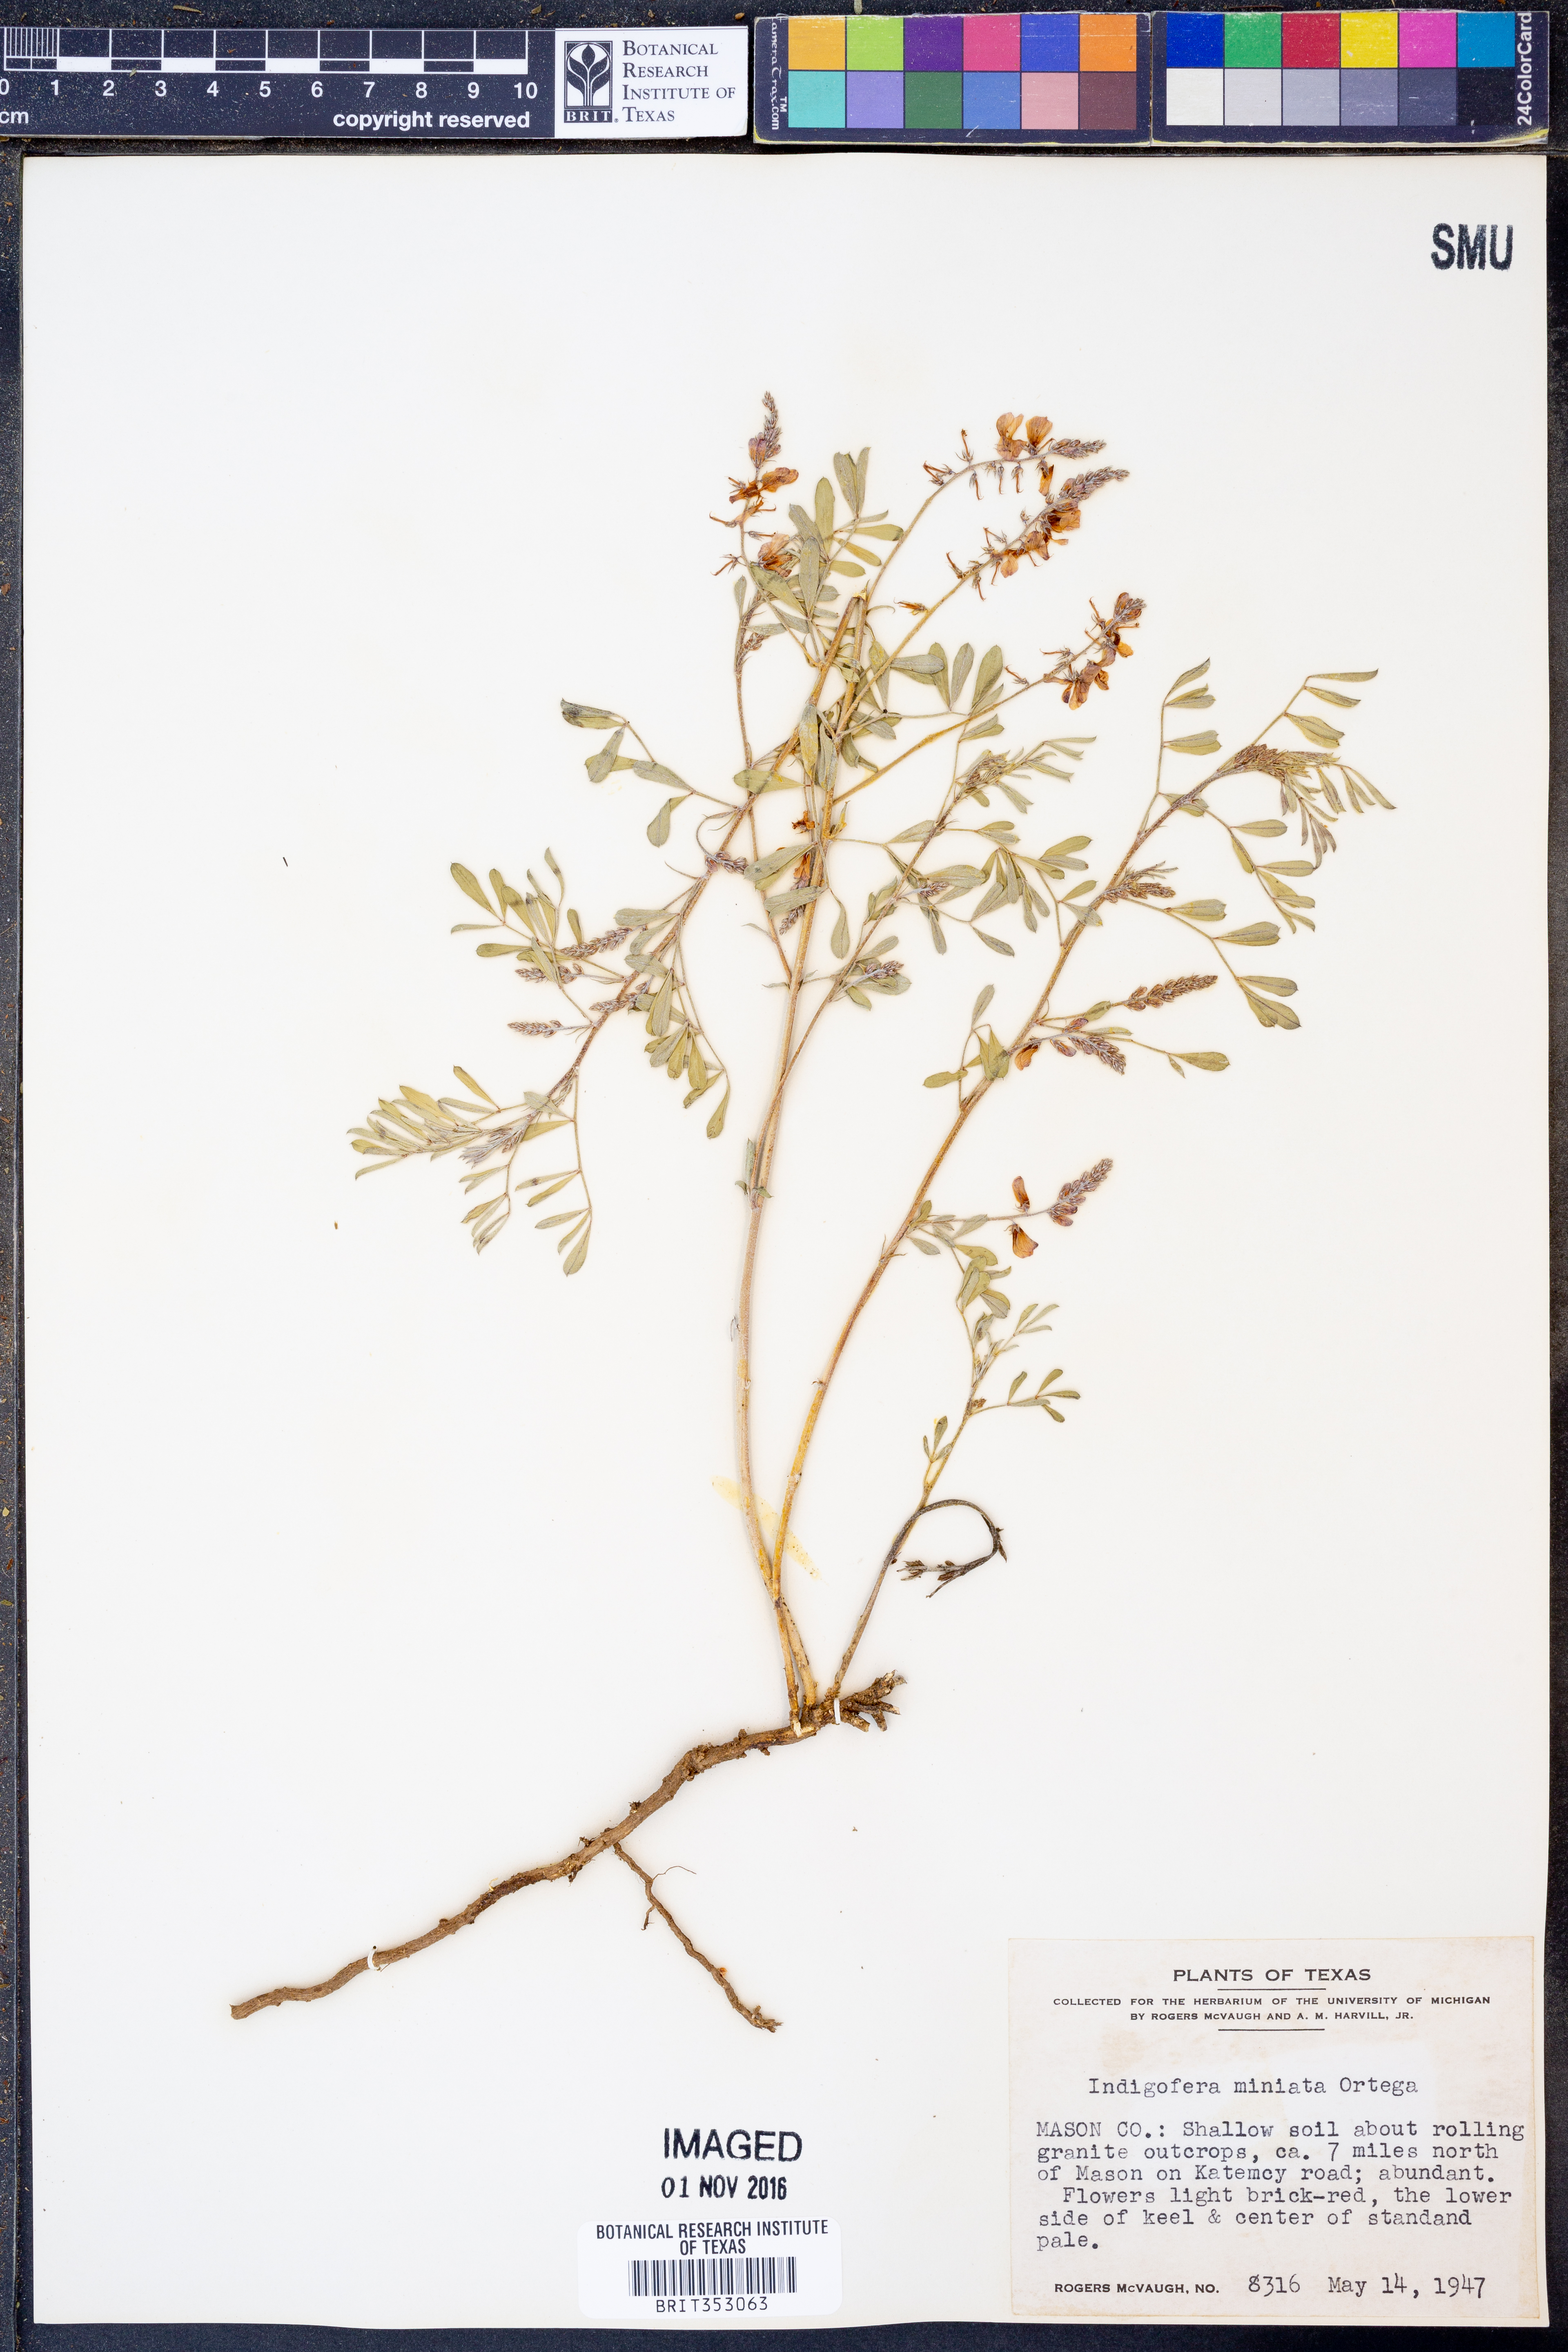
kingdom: Plantae
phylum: Tracheophyta
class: Magnoliopsida
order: Fabales
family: Fabaceae
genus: Indigofera
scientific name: Indigofera miniata
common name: Coast indigo
